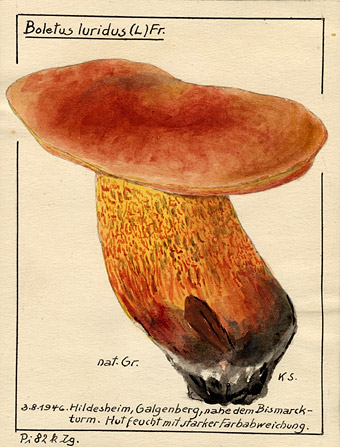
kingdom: Fungi
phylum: Basidiomycota
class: Agaricomycetes
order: Boletales
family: Boletaceae
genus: Suillellus
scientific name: Suillellus luridus
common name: Lurid bolete
